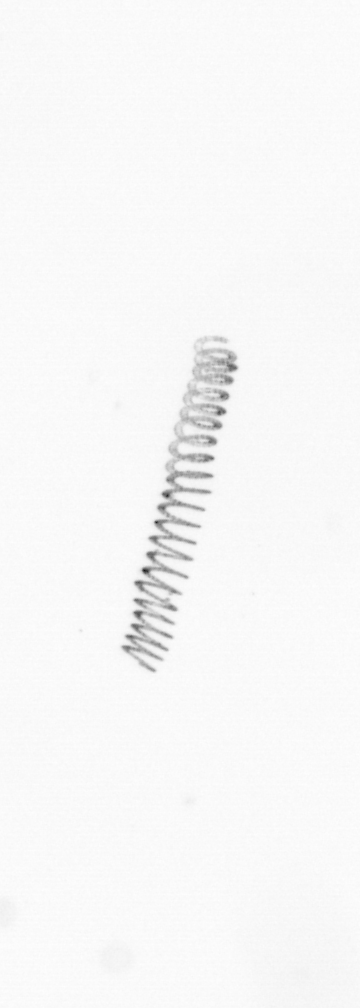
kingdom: Chromista
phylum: Ochrophyta
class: Bacillariophyceae
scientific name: Bacillariophyceae
